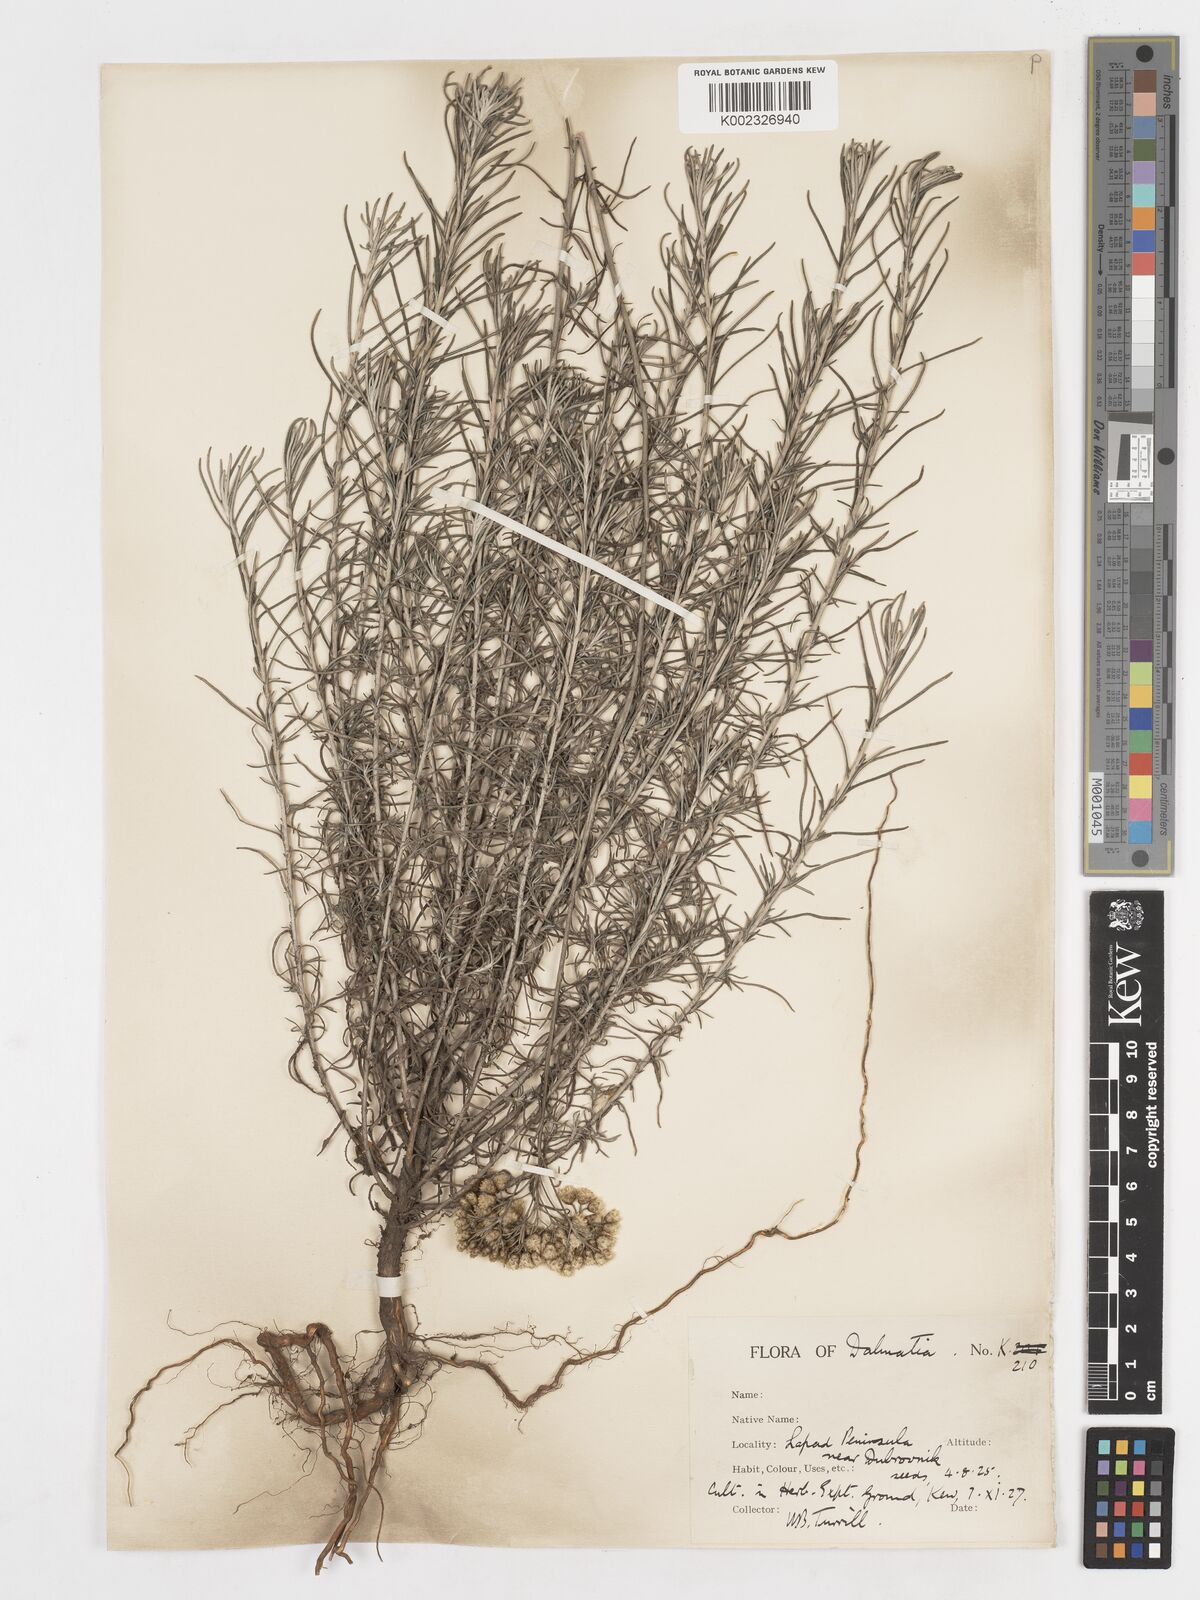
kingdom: Plantae
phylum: Tracheophyta
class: Magnoliopsida
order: Asterales
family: Asteraceae
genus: Helichrysum
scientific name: Helichrysum italicum
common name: Curryplant
